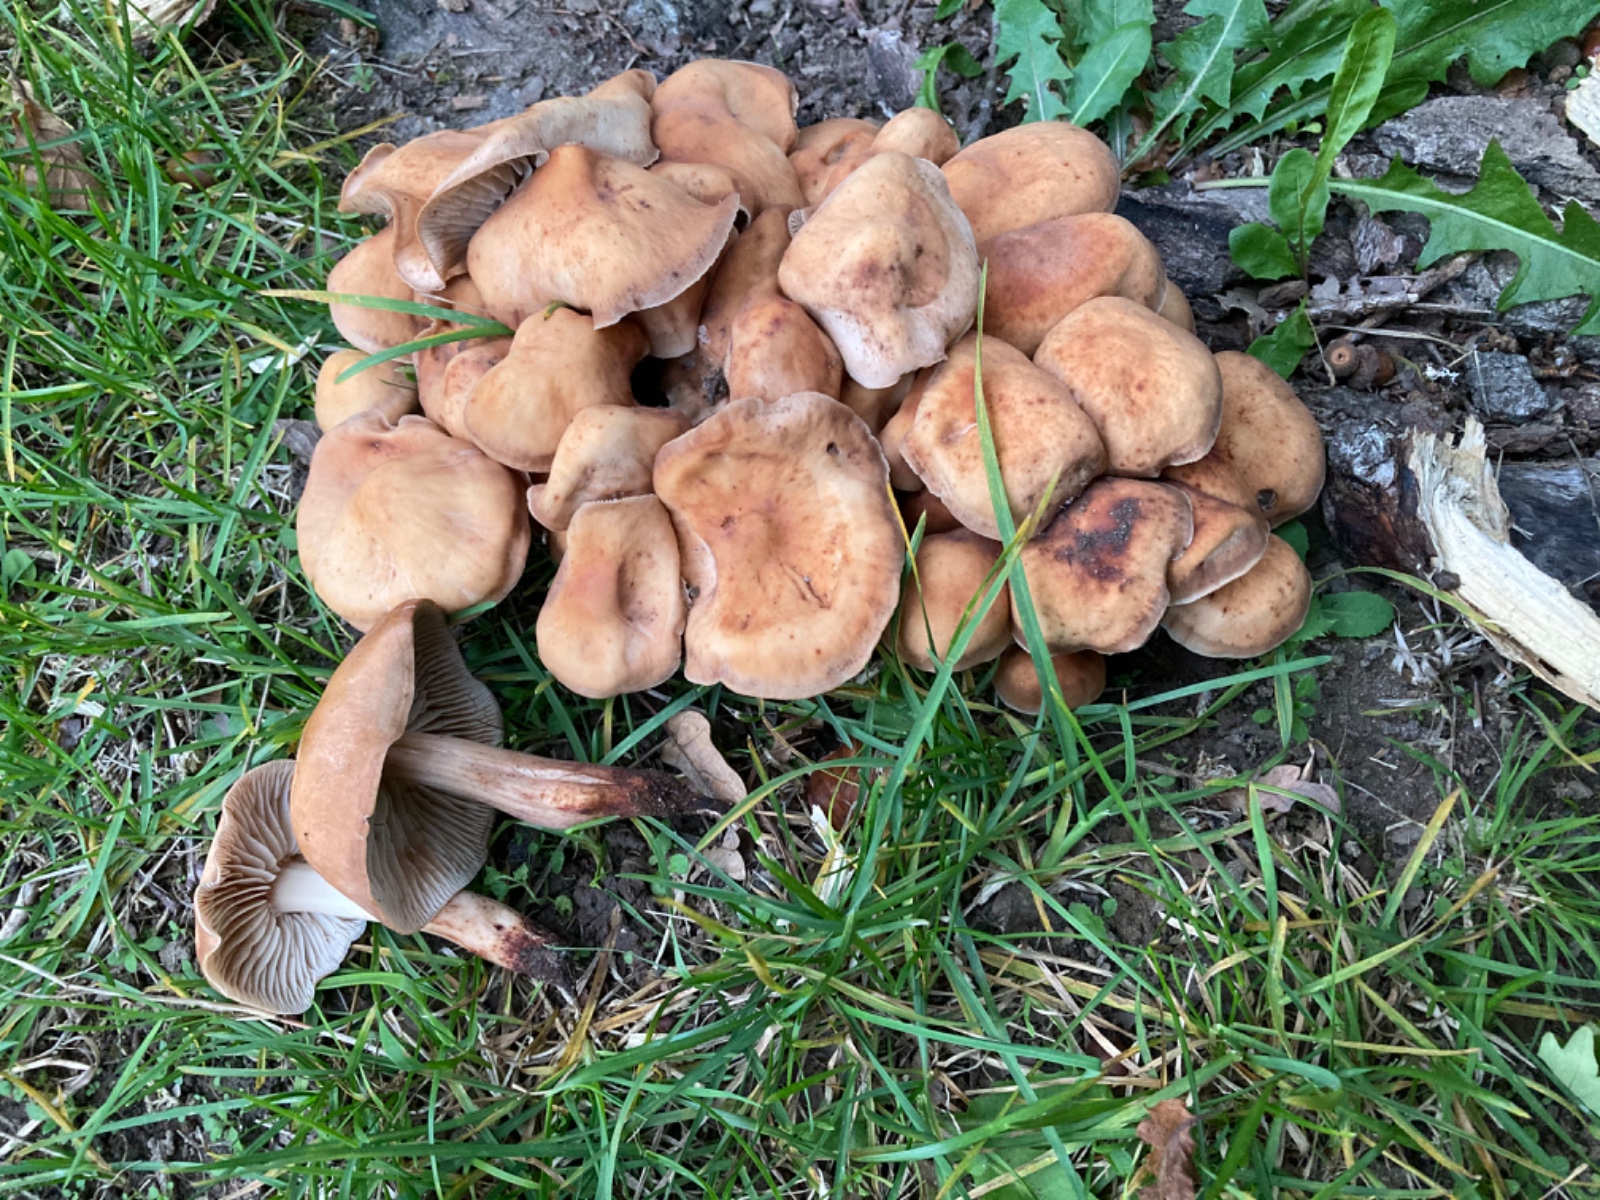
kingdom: Fungi
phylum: Basidiomycota
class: Agaricomycetes
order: Agaricales
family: Omphalotaceae
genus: Gymnopus
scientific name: Gymnopus fusipes
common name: tenstokket fladhat
